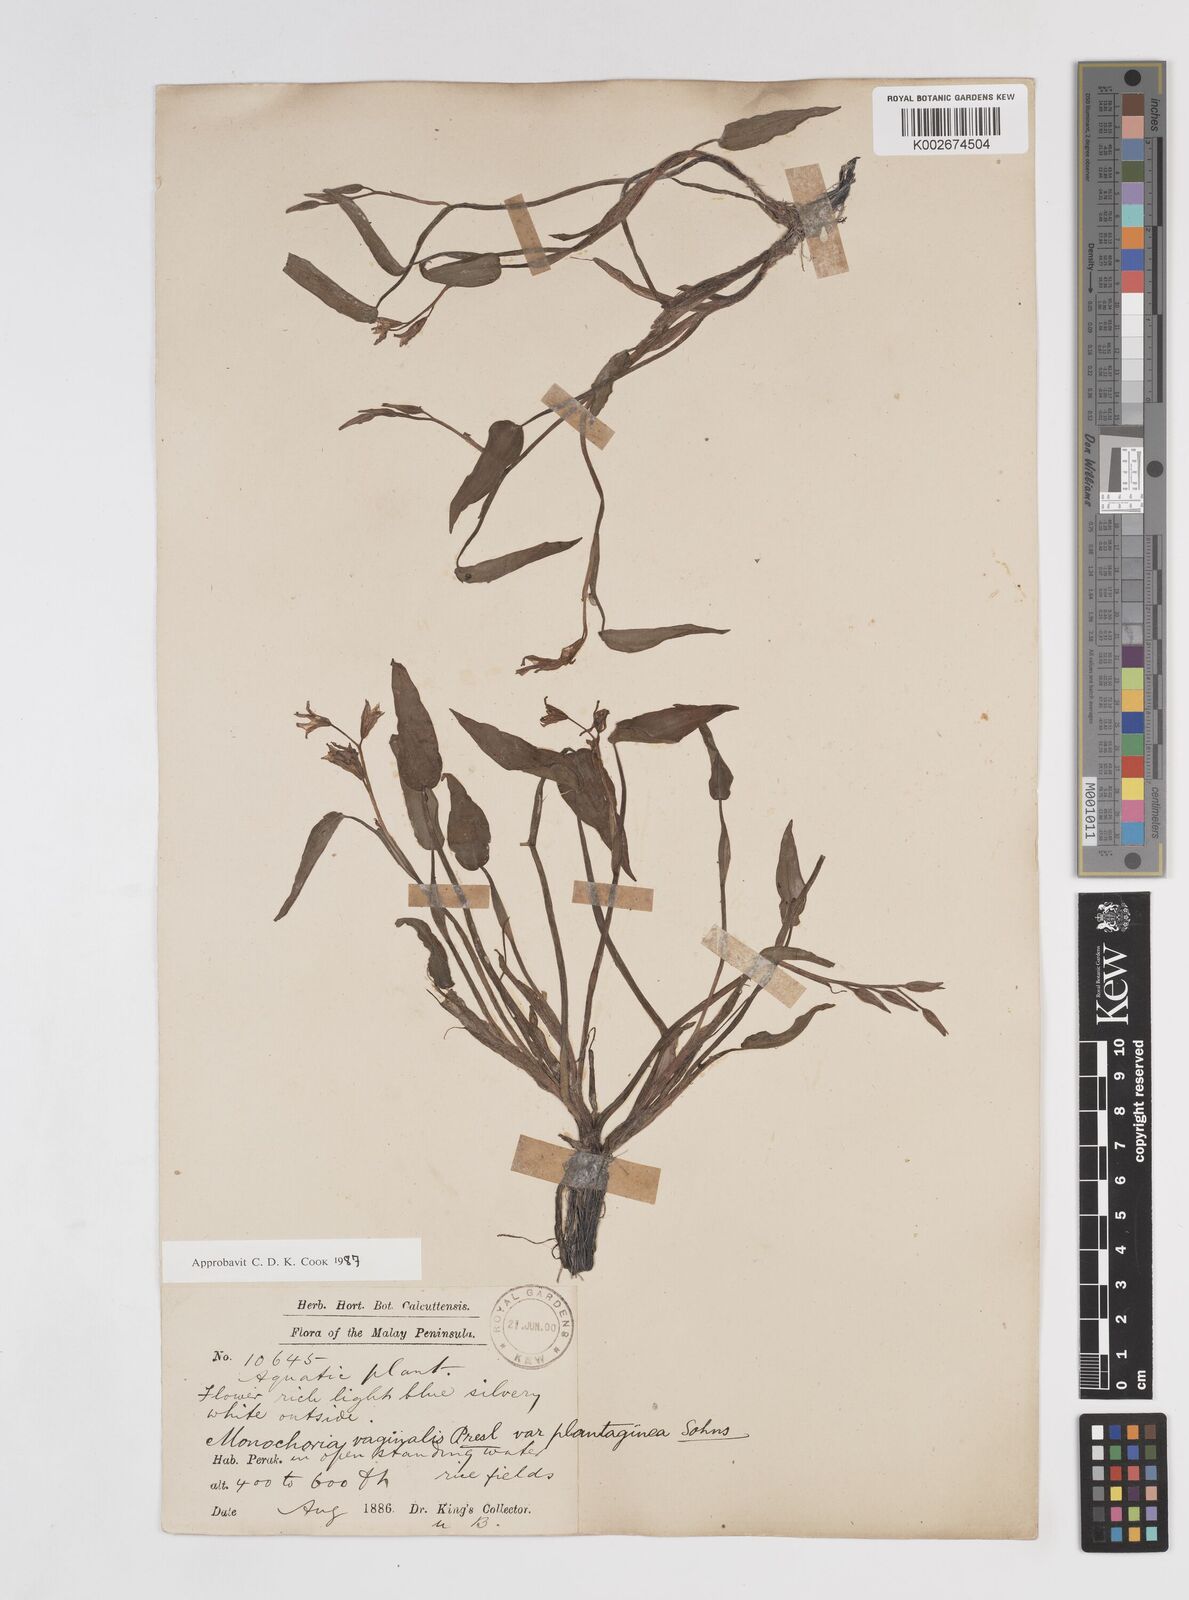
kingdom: Plantae
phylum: Tracheophyta
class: Liliopsida
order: Commelinales
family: Pontederiaceae
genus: Pontederia
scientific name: Pontederia vaginalis
